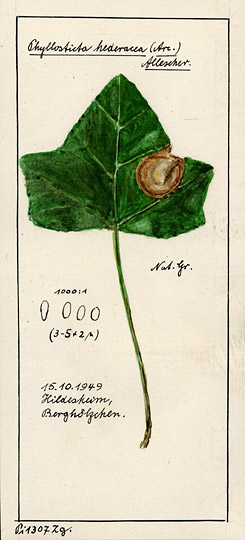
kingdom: Fungi
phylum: Ascomycota
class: Dothideomycetes
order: Botryosphaeriales
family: Phyllostictaceae
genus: Phyllosticta
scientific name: Phyllosticta
